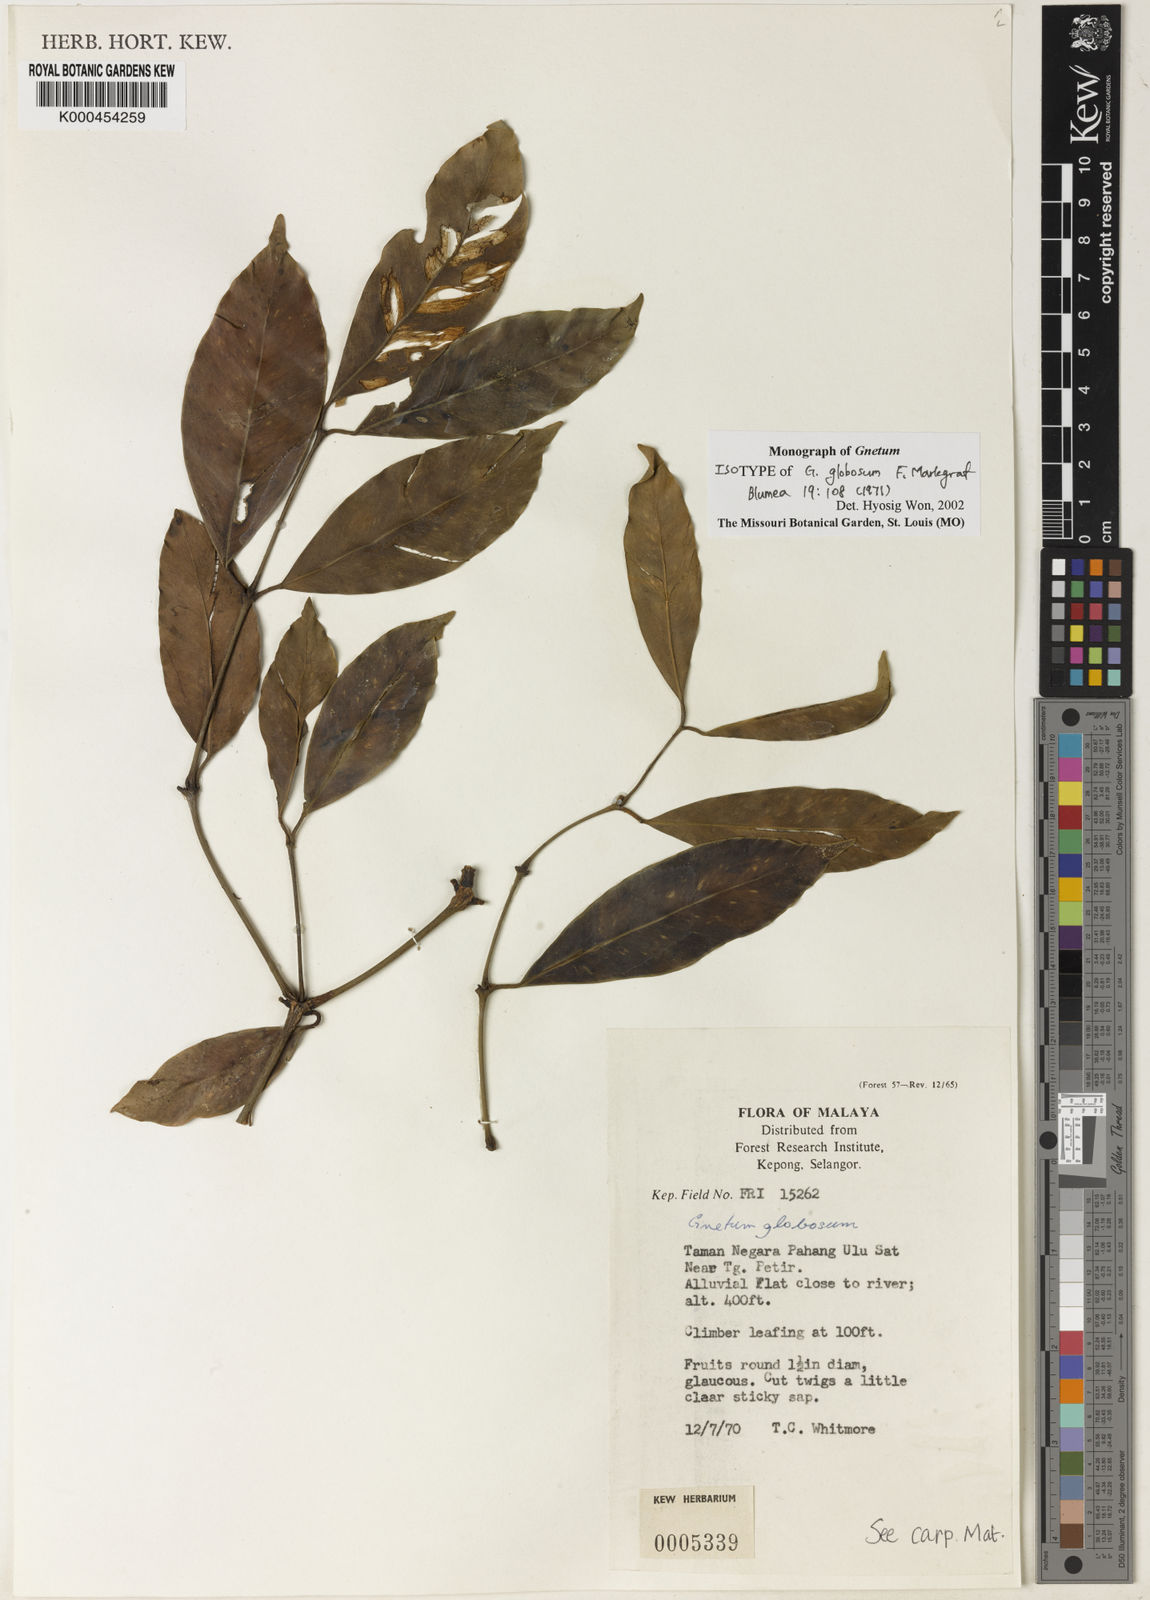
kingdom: Plantae
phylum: Tracheophyta
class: Gnetopsida
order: Gnetales
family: Gnetaceae
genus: Gnetum
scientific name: Gnetum globosum
